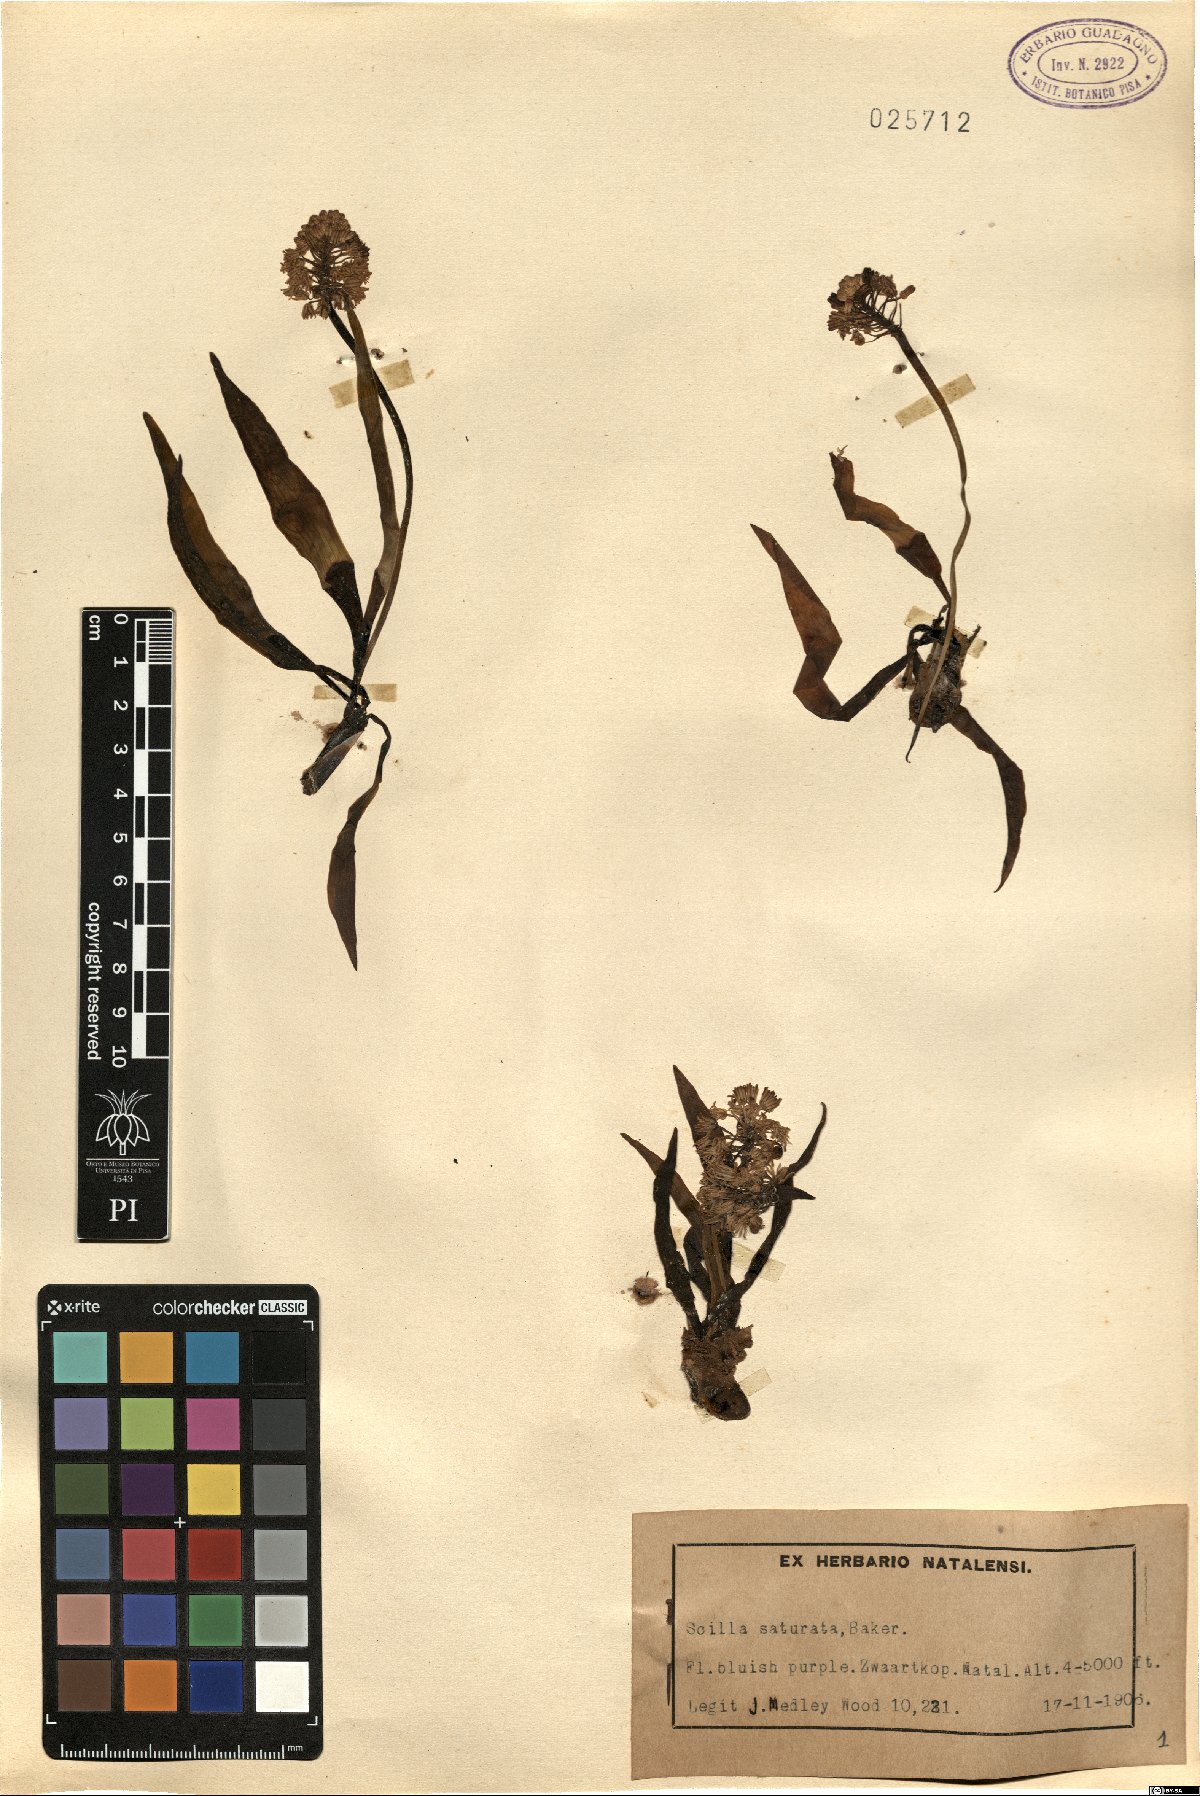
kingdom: Plantae
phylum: Tracheophyta
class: Liliopsida
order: Asparagales
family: Asparagaceae
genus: Ledebouria
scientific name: Ledebouria cooperi
